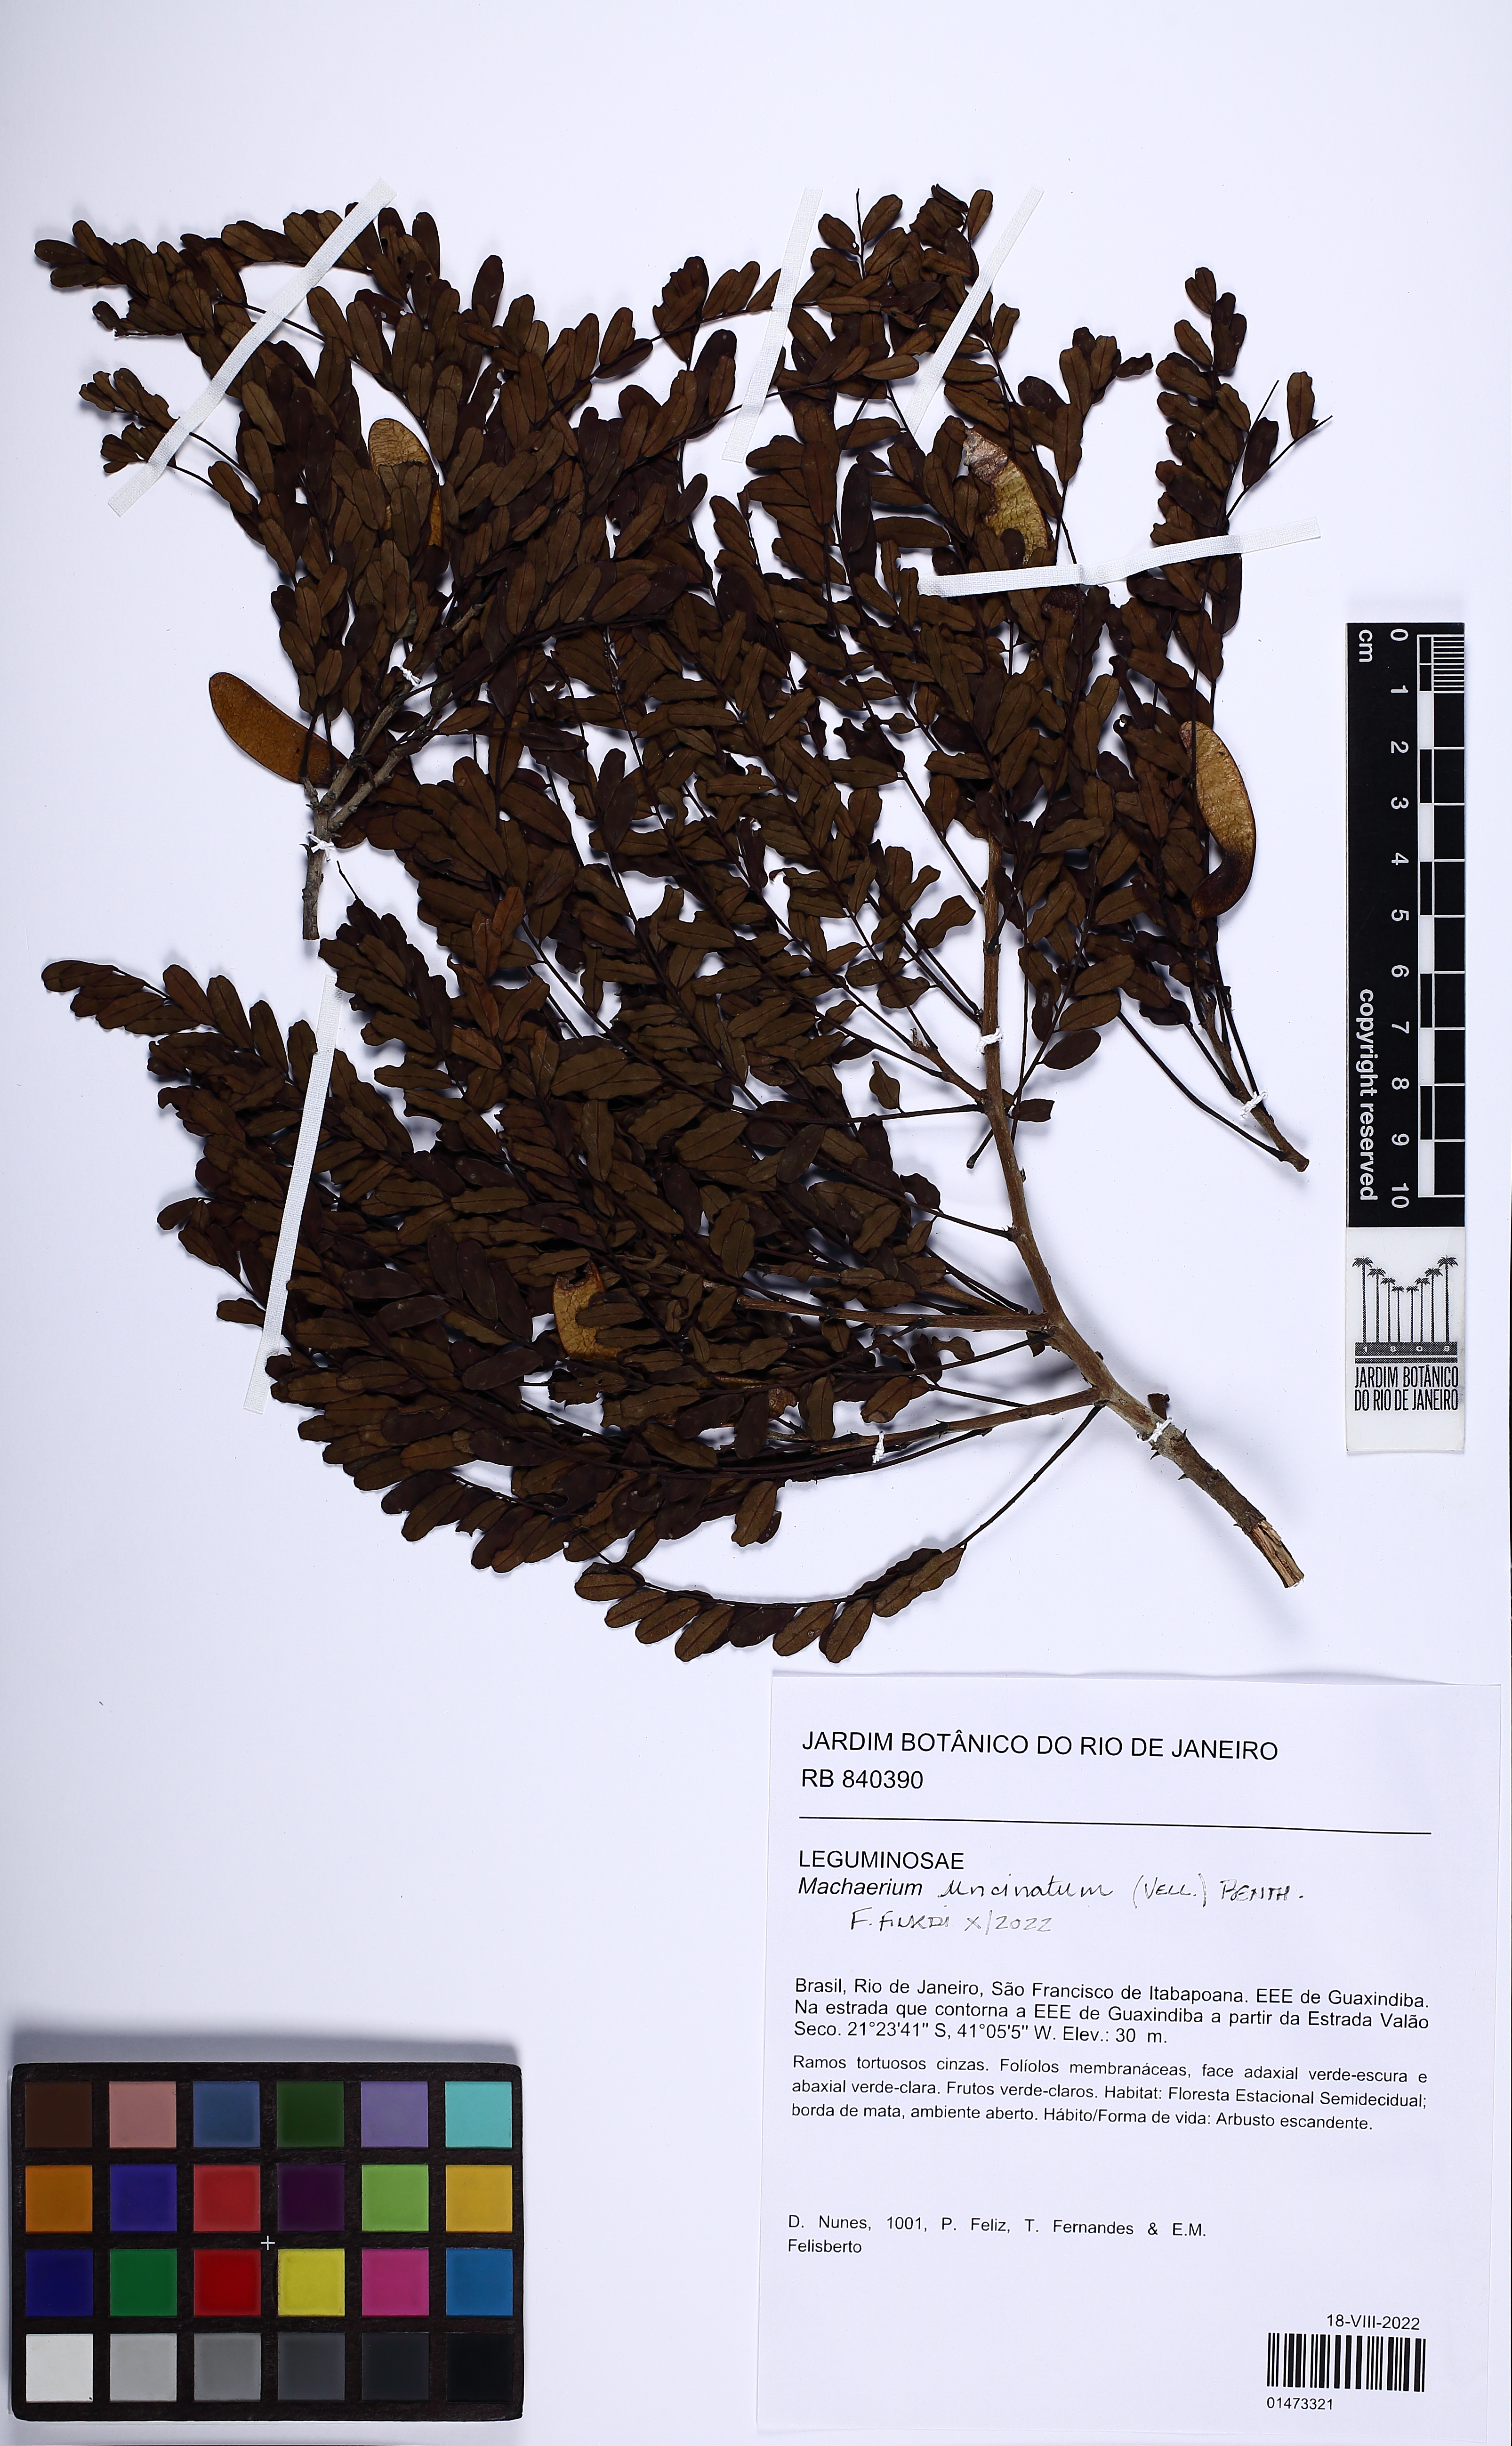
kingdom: Plantae
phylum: Tracheophyta
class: Magnoliopsida
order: Fabales
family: Fabaceae
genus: Machaerium
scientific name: Machaerium uncinatum
